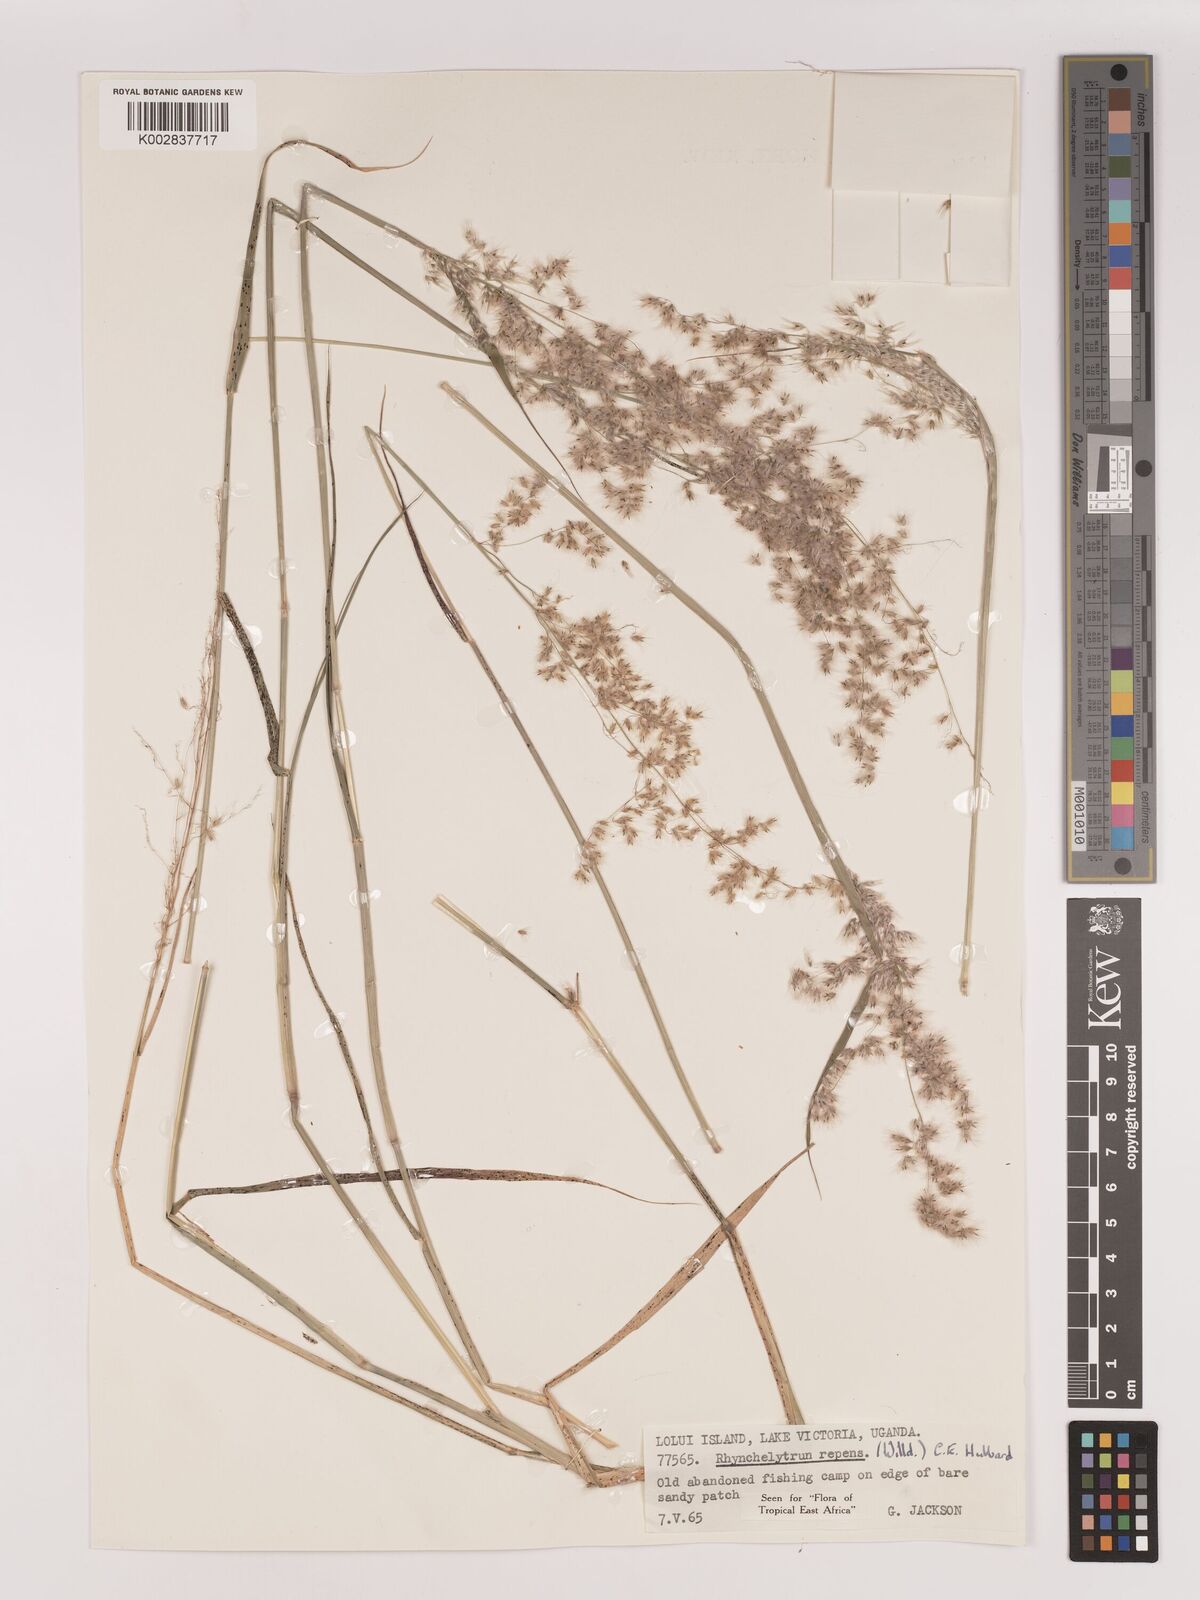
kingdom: Plantae
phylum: Tracheophyta
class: Liliopsida
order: Poales
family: Poaceae
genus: Melinis
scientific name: Melinis repens
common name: Rose natal grass
